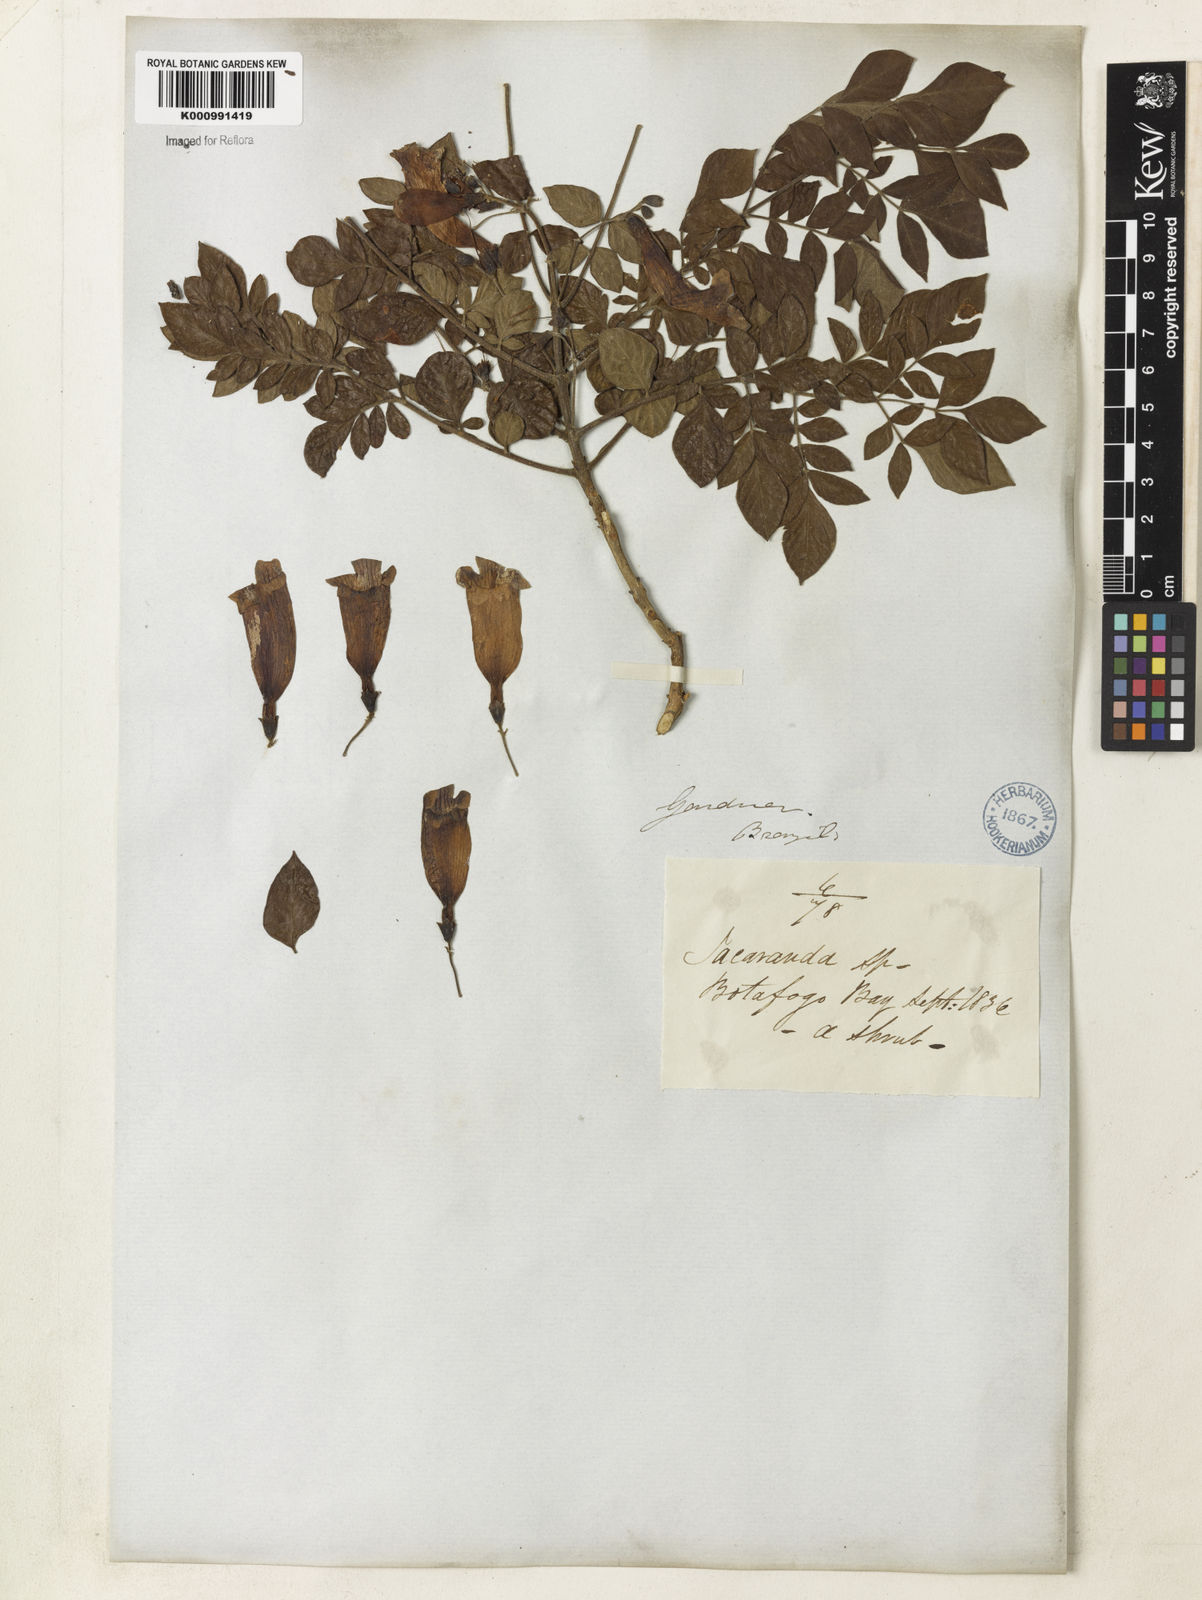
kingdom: Plantae
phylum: Tracheophyta
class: Magnoliopsida
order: Lamiales
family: Bignoniaceae
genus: Jacaranda
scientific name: Jacaranda jasminoides
